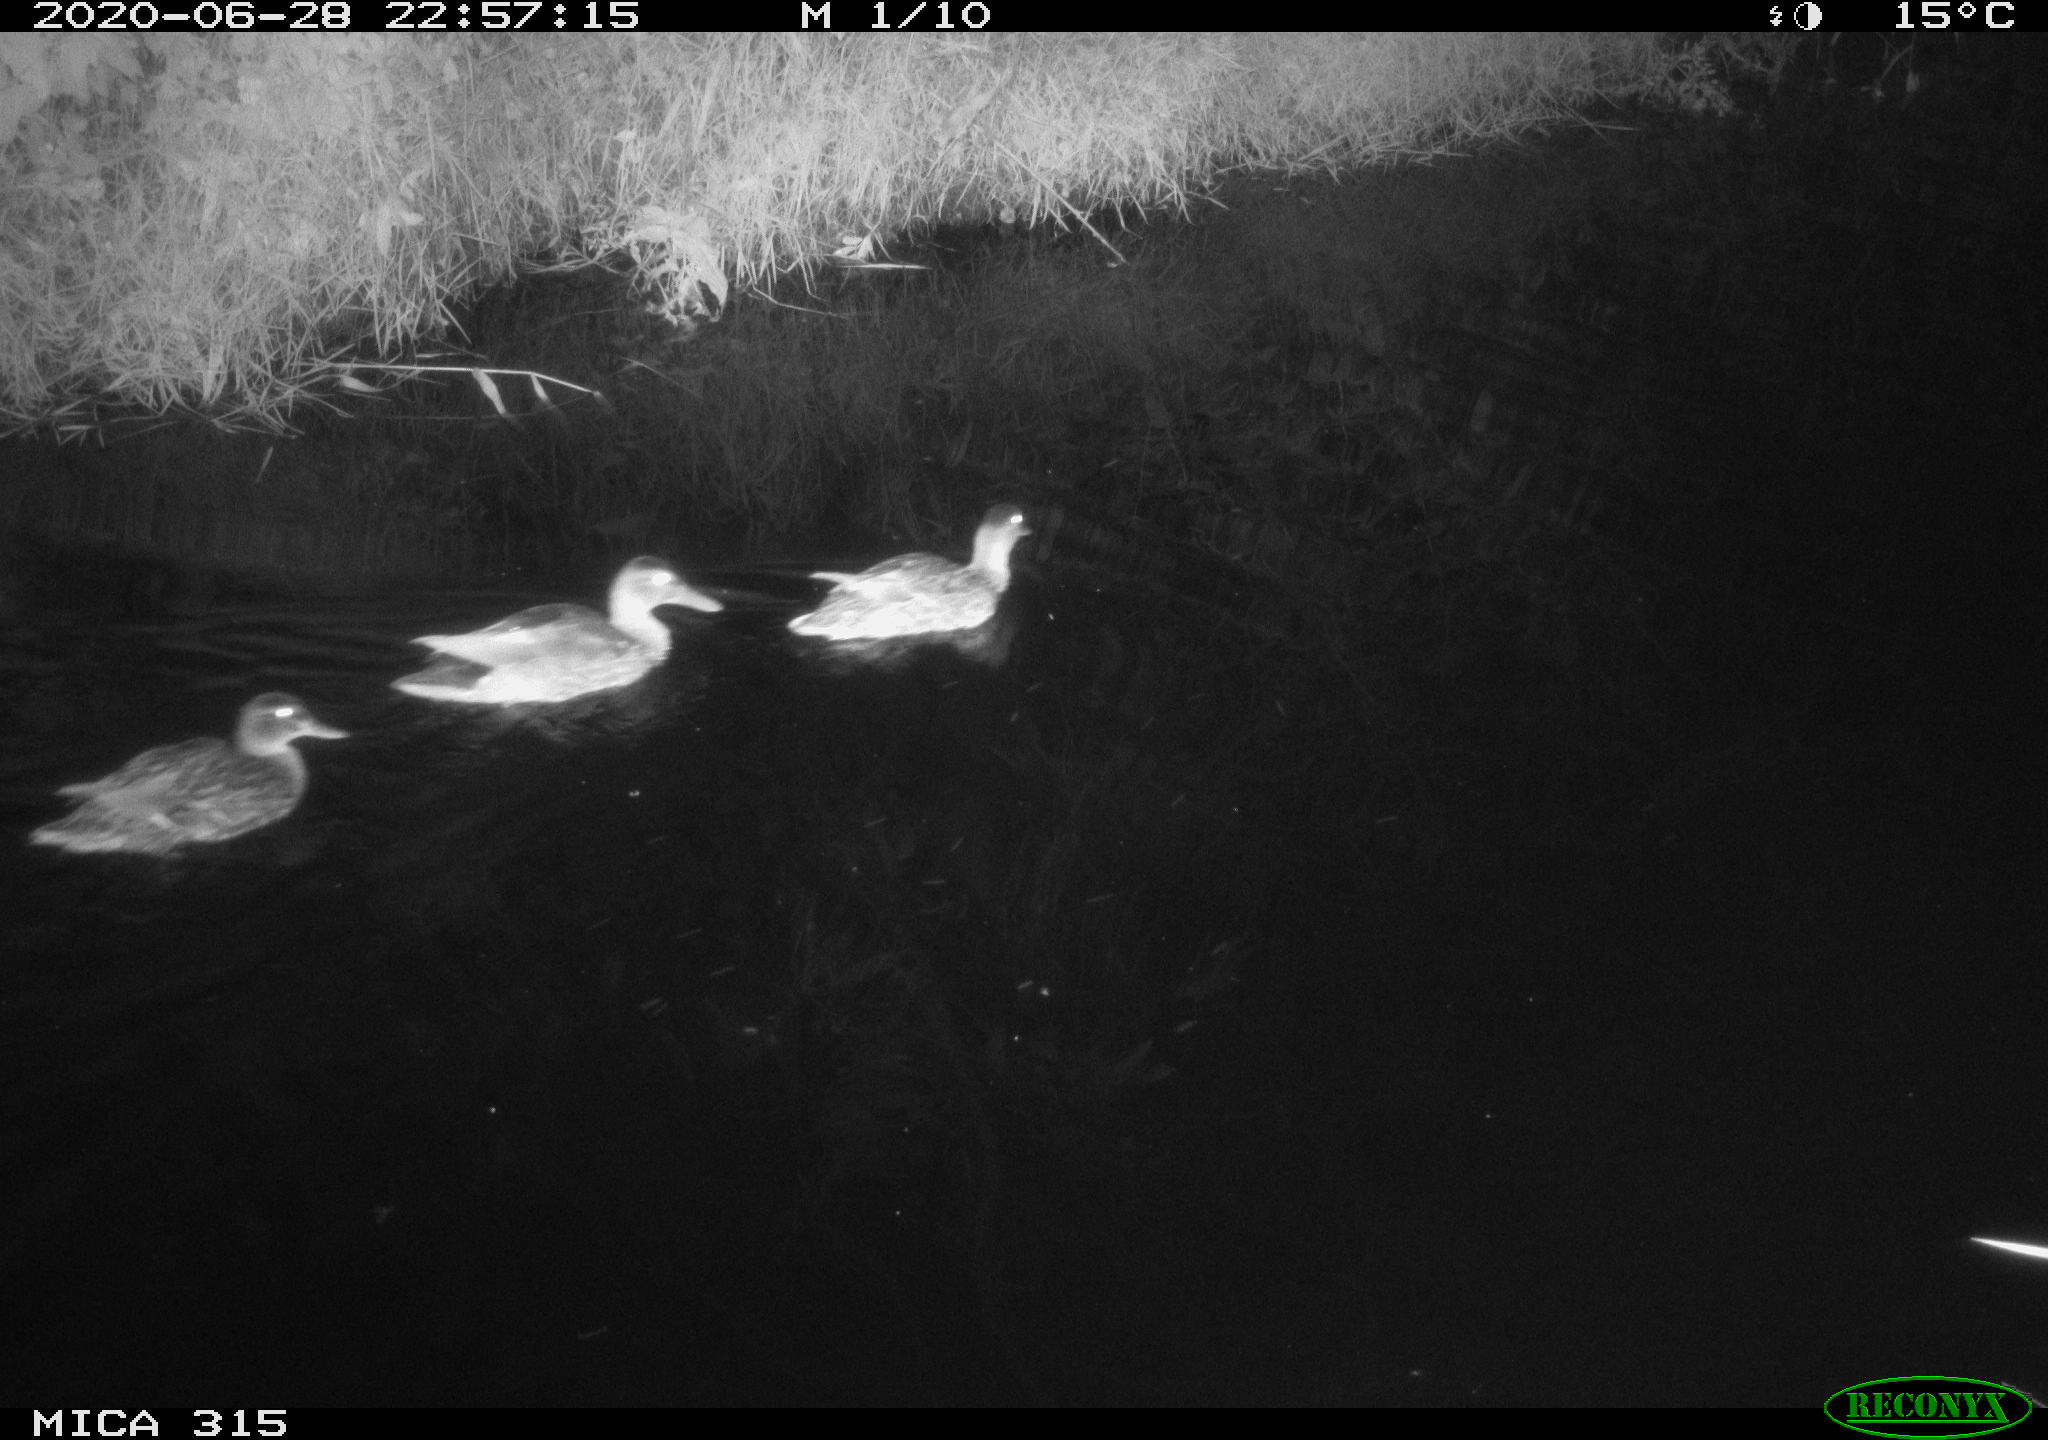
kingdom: Animalia
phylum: Chordata
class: Aves
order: Anseriformes
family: Anatidae
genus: Anas
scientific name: Anas platyrhynchos
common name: Mallard
